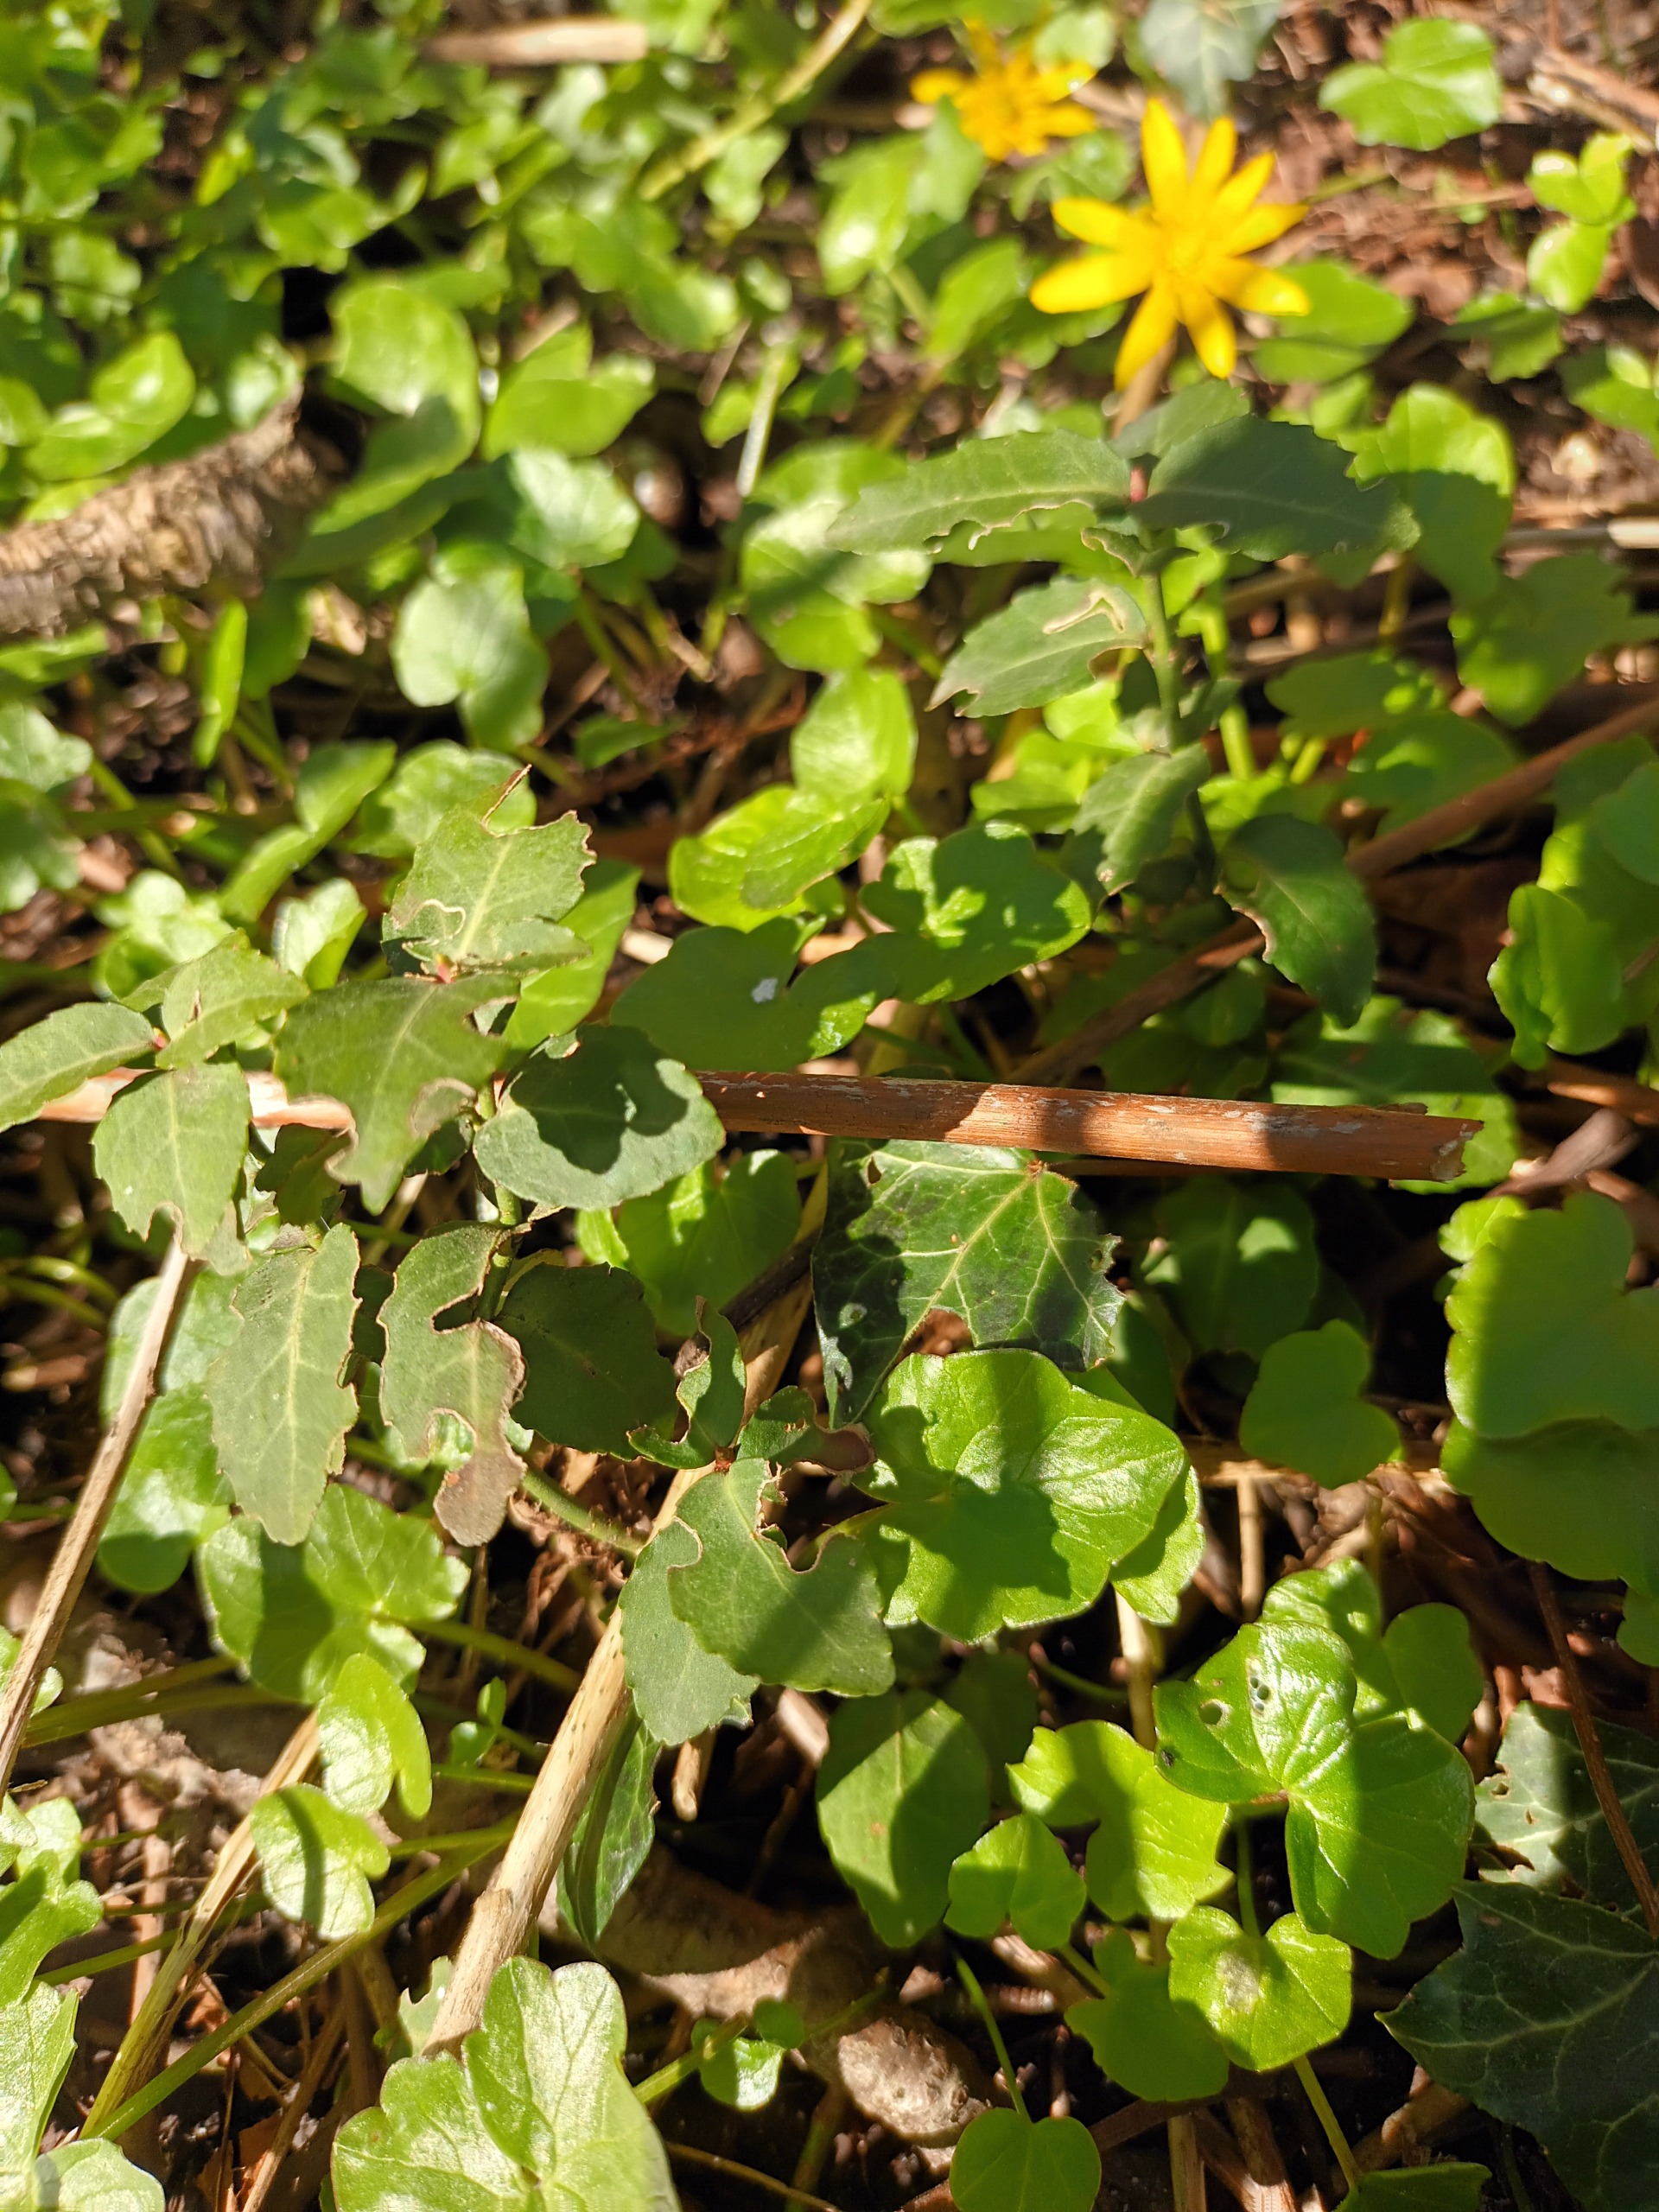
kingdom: Plantae
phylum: Tracheophyta
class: Magnoliopsida
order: Celastrales
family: Celastraceae
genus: Euonymus
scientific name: Euonymus fortunei
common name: Krybende benved
